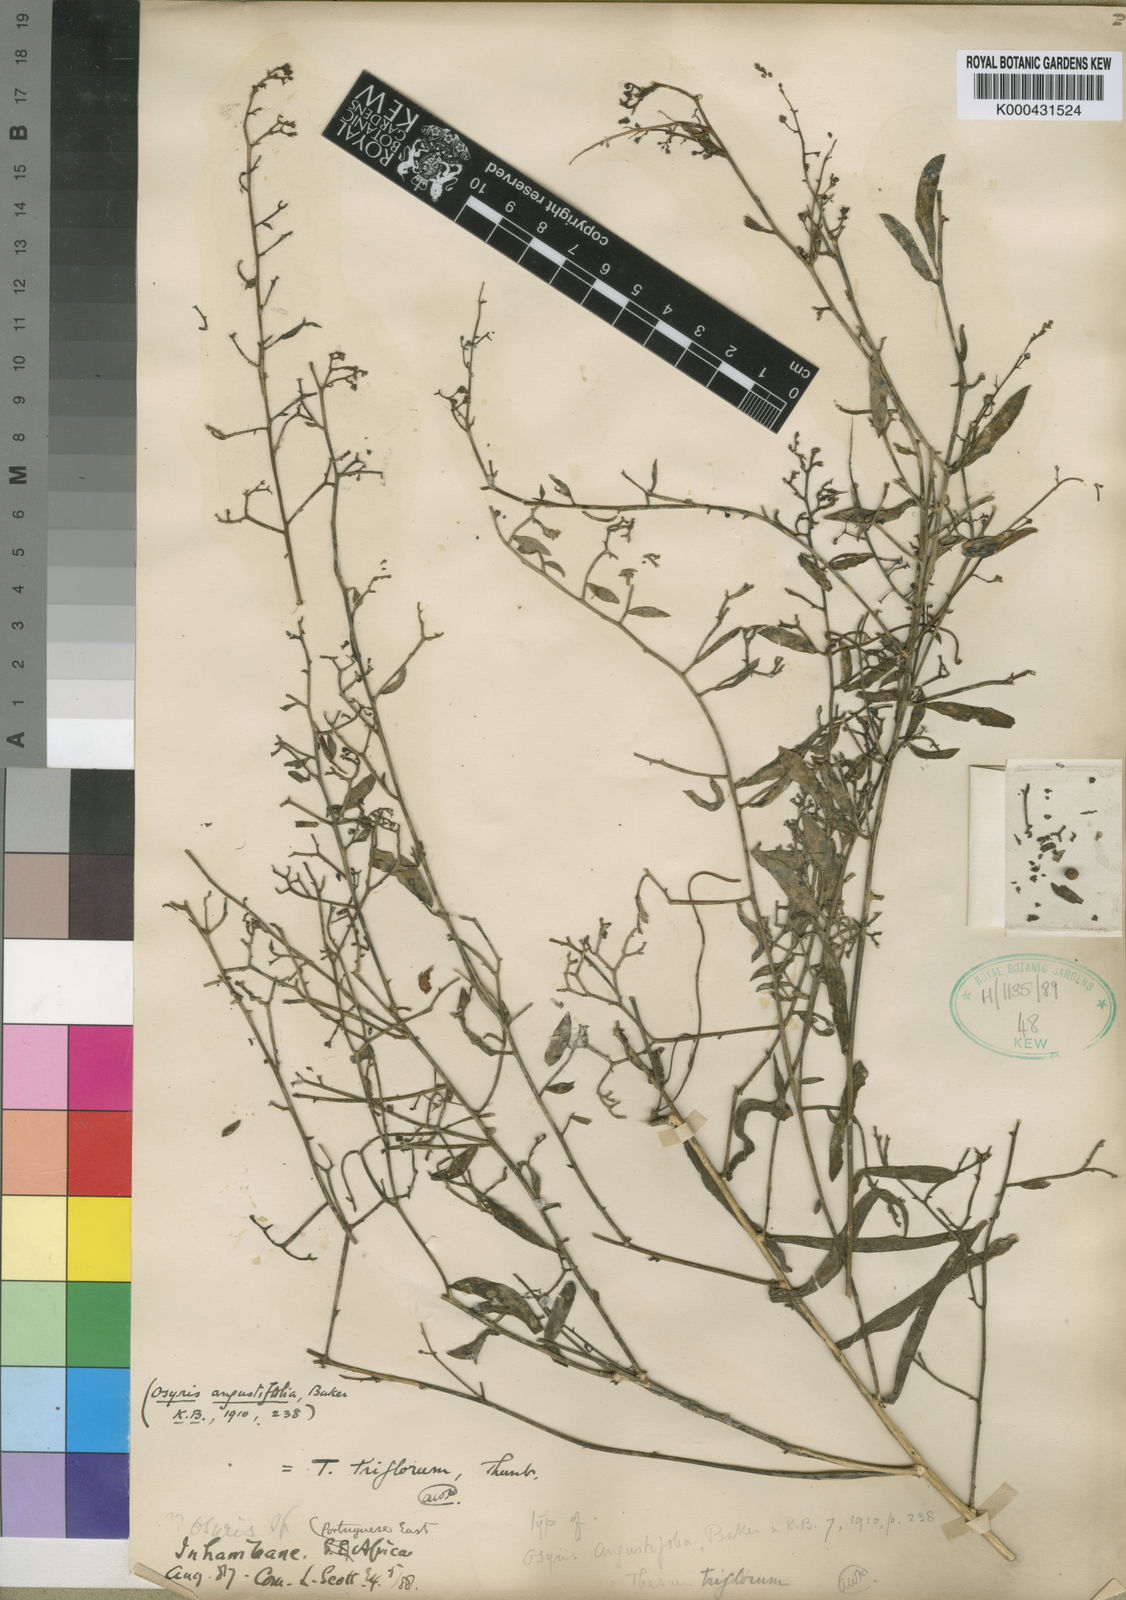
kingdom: Plantae
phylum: Tracheophyta
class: Magnoliopsida
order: Santalales
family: Thesiaceae
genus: Thesium
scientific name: Thesium triflorum
